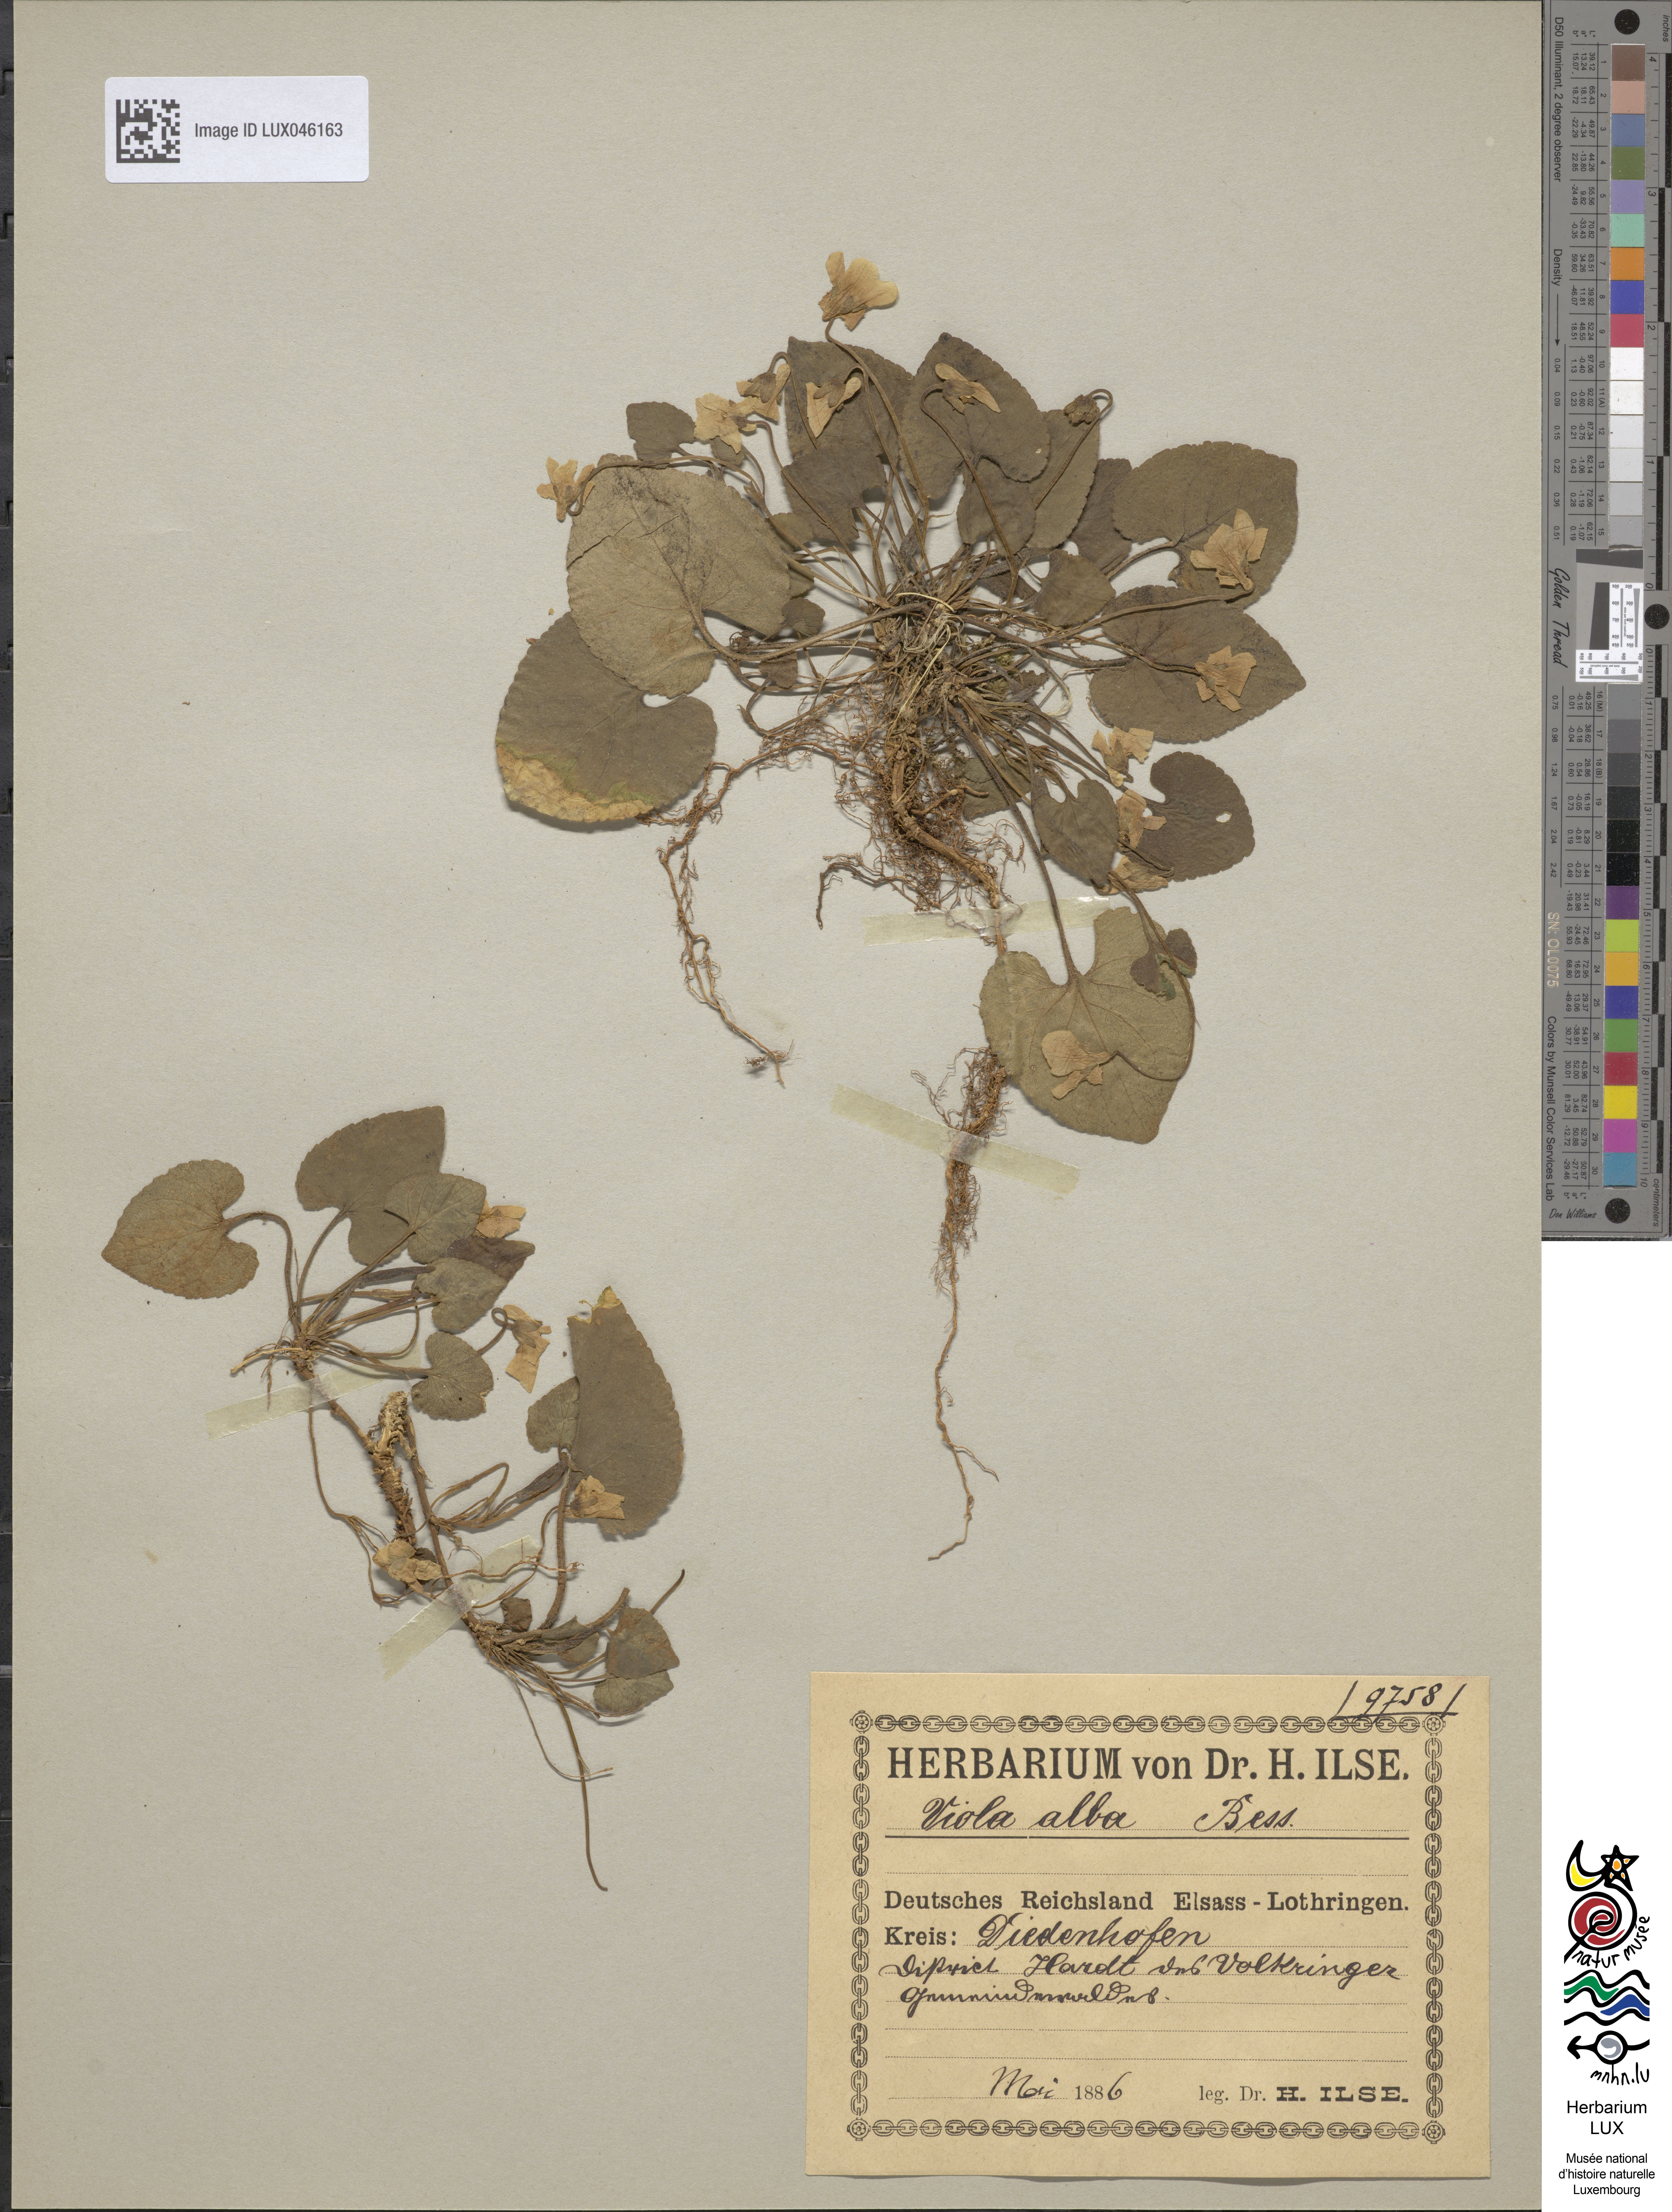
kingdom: Plantae
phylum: Tracheophyta
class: Magnoliopsida
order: Malpighiales
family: Violaceae
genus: Viola
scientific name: Viola alba
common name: White violet
